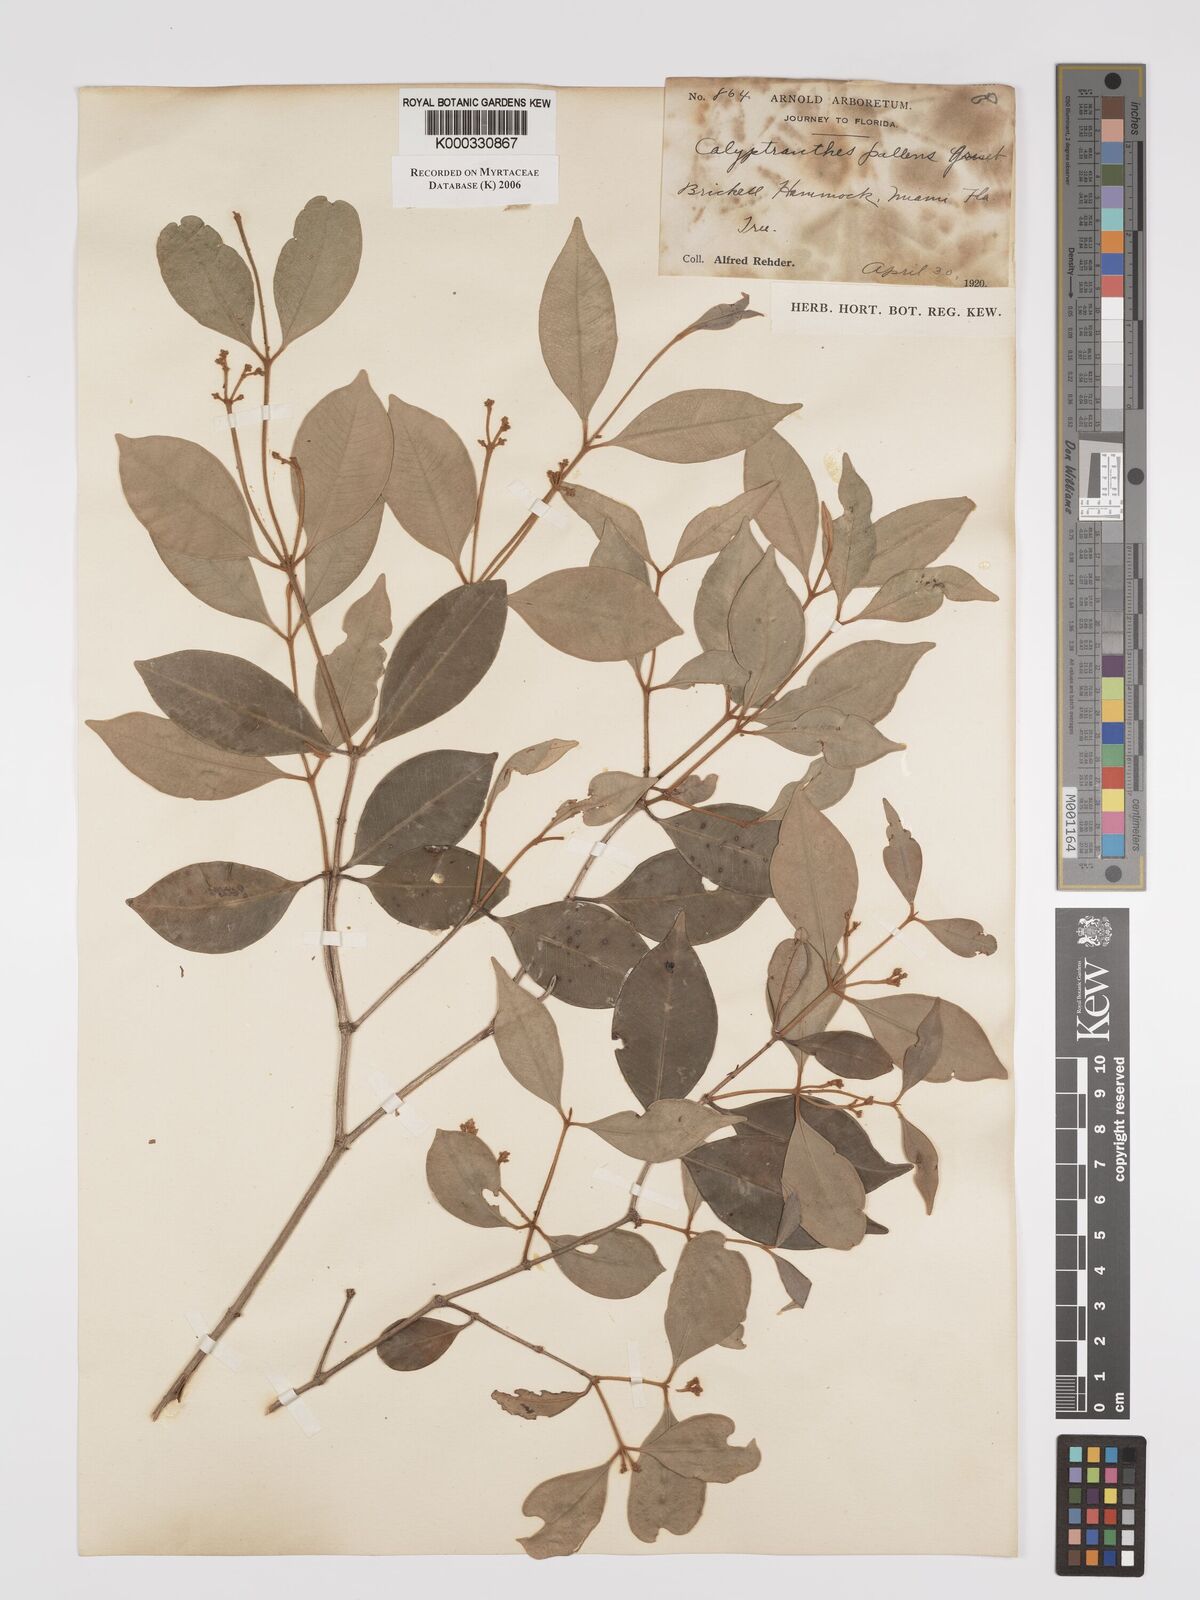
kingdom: Plantae
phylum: Tracheophyta
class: Magnoliopsida
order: Myrtales
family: Myrtaceae
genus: Myrcia
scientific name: Myrcia neopallens
